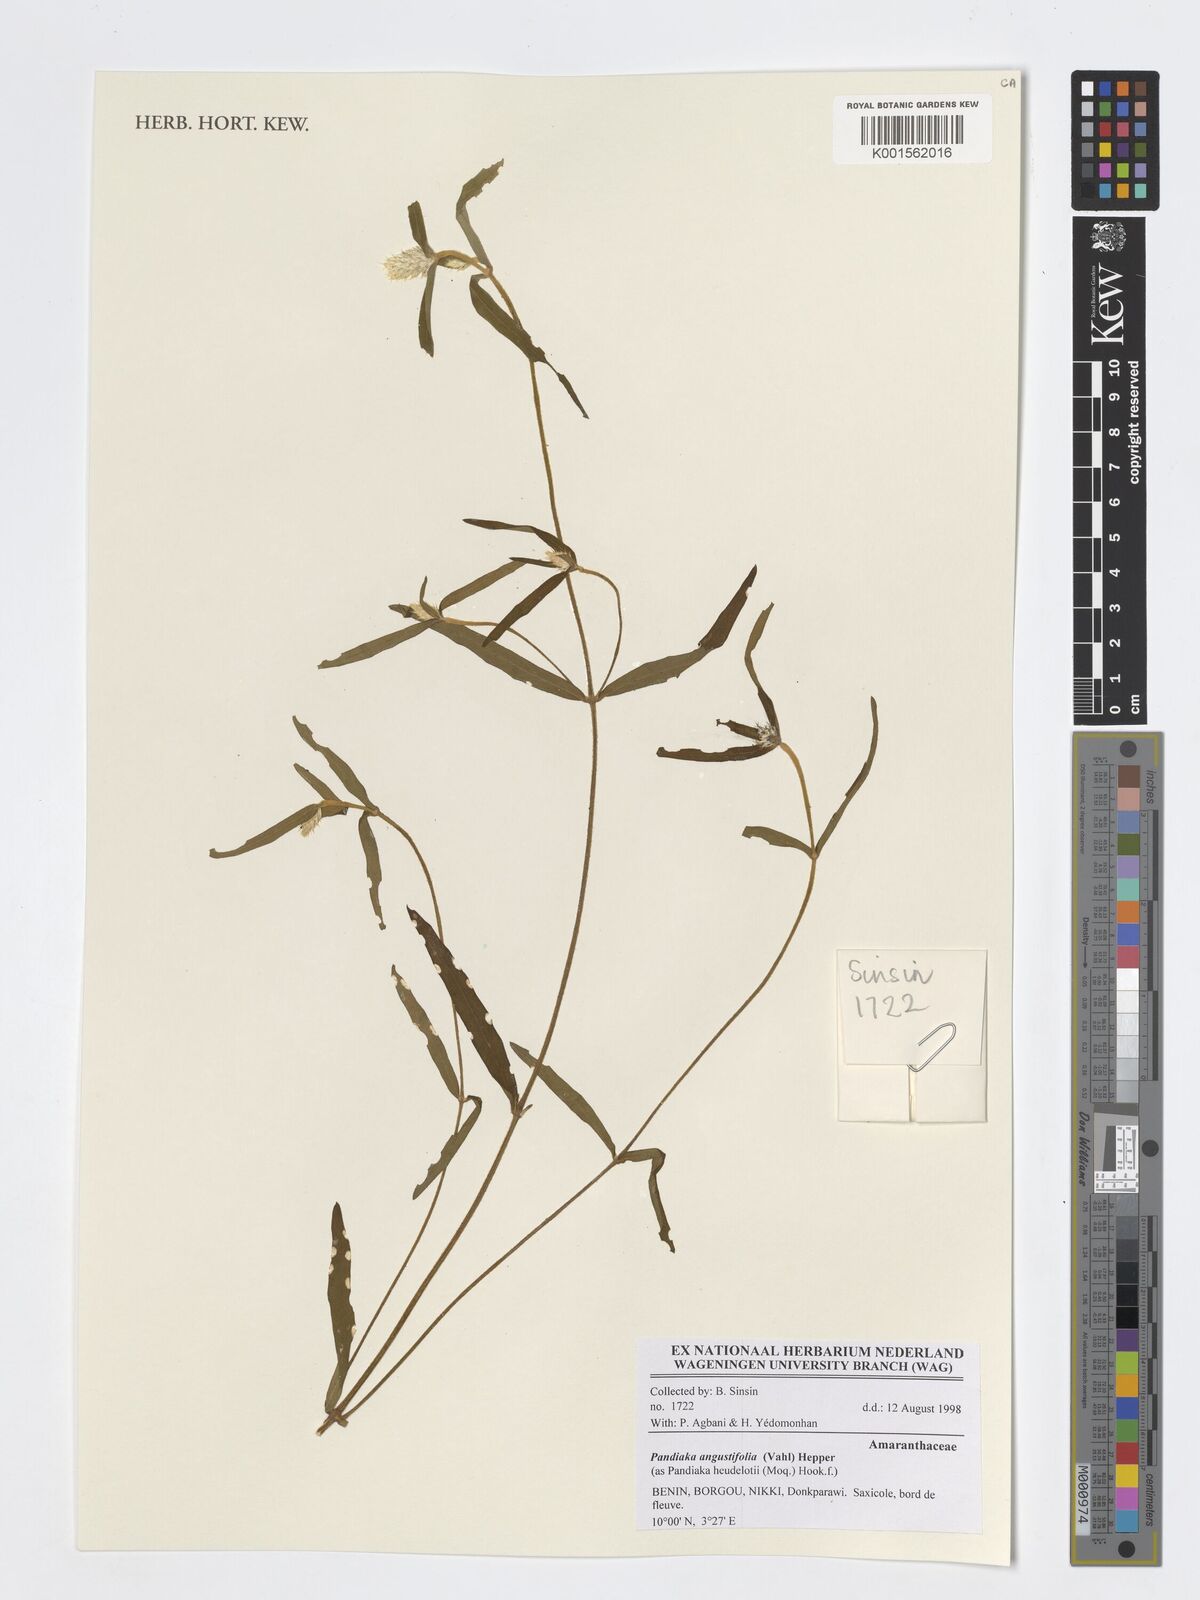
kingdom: Plantae
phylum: Tracheophyta
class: Magnoliopsida
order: Caryophyllales
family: Amaranthaceae
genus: Pandiaka
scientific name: Pandiaka angustifolia
